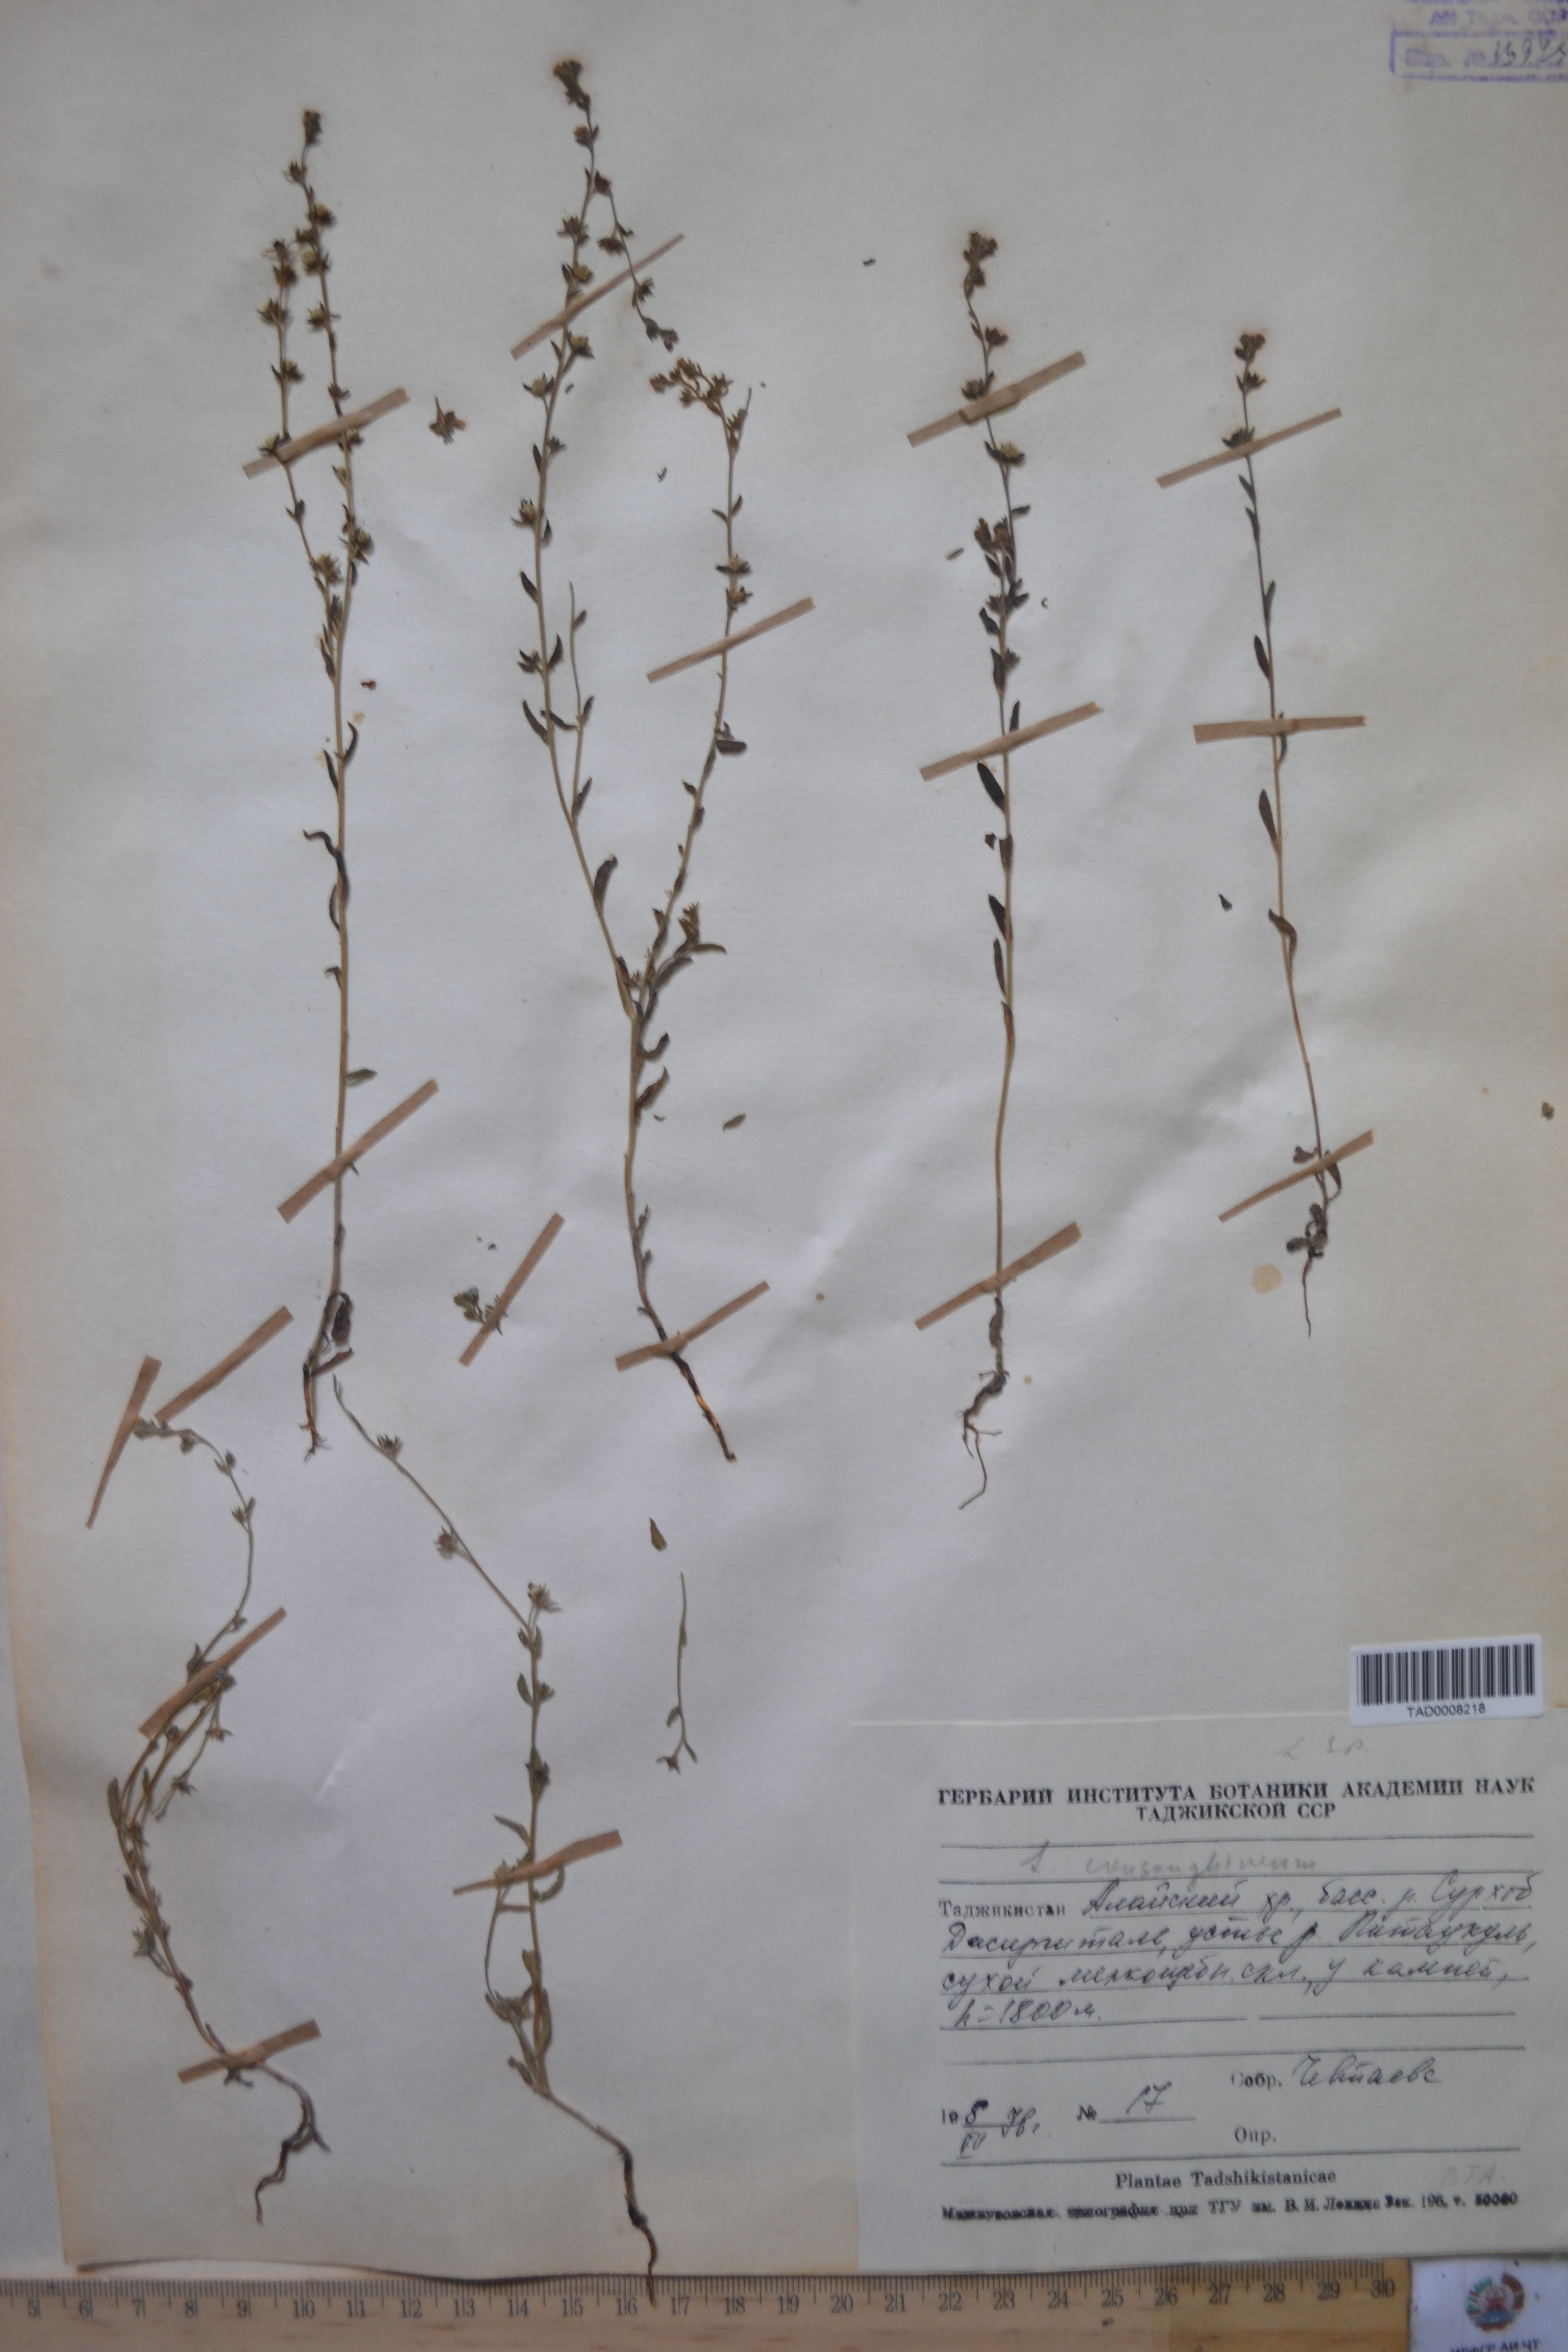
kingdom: Plantae
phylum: Tracheophyta
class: Magnoliopsida
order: Boraginales
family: Boraginaceae
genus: Lappula
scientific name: Lappula squarrosa
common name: European stickseed
